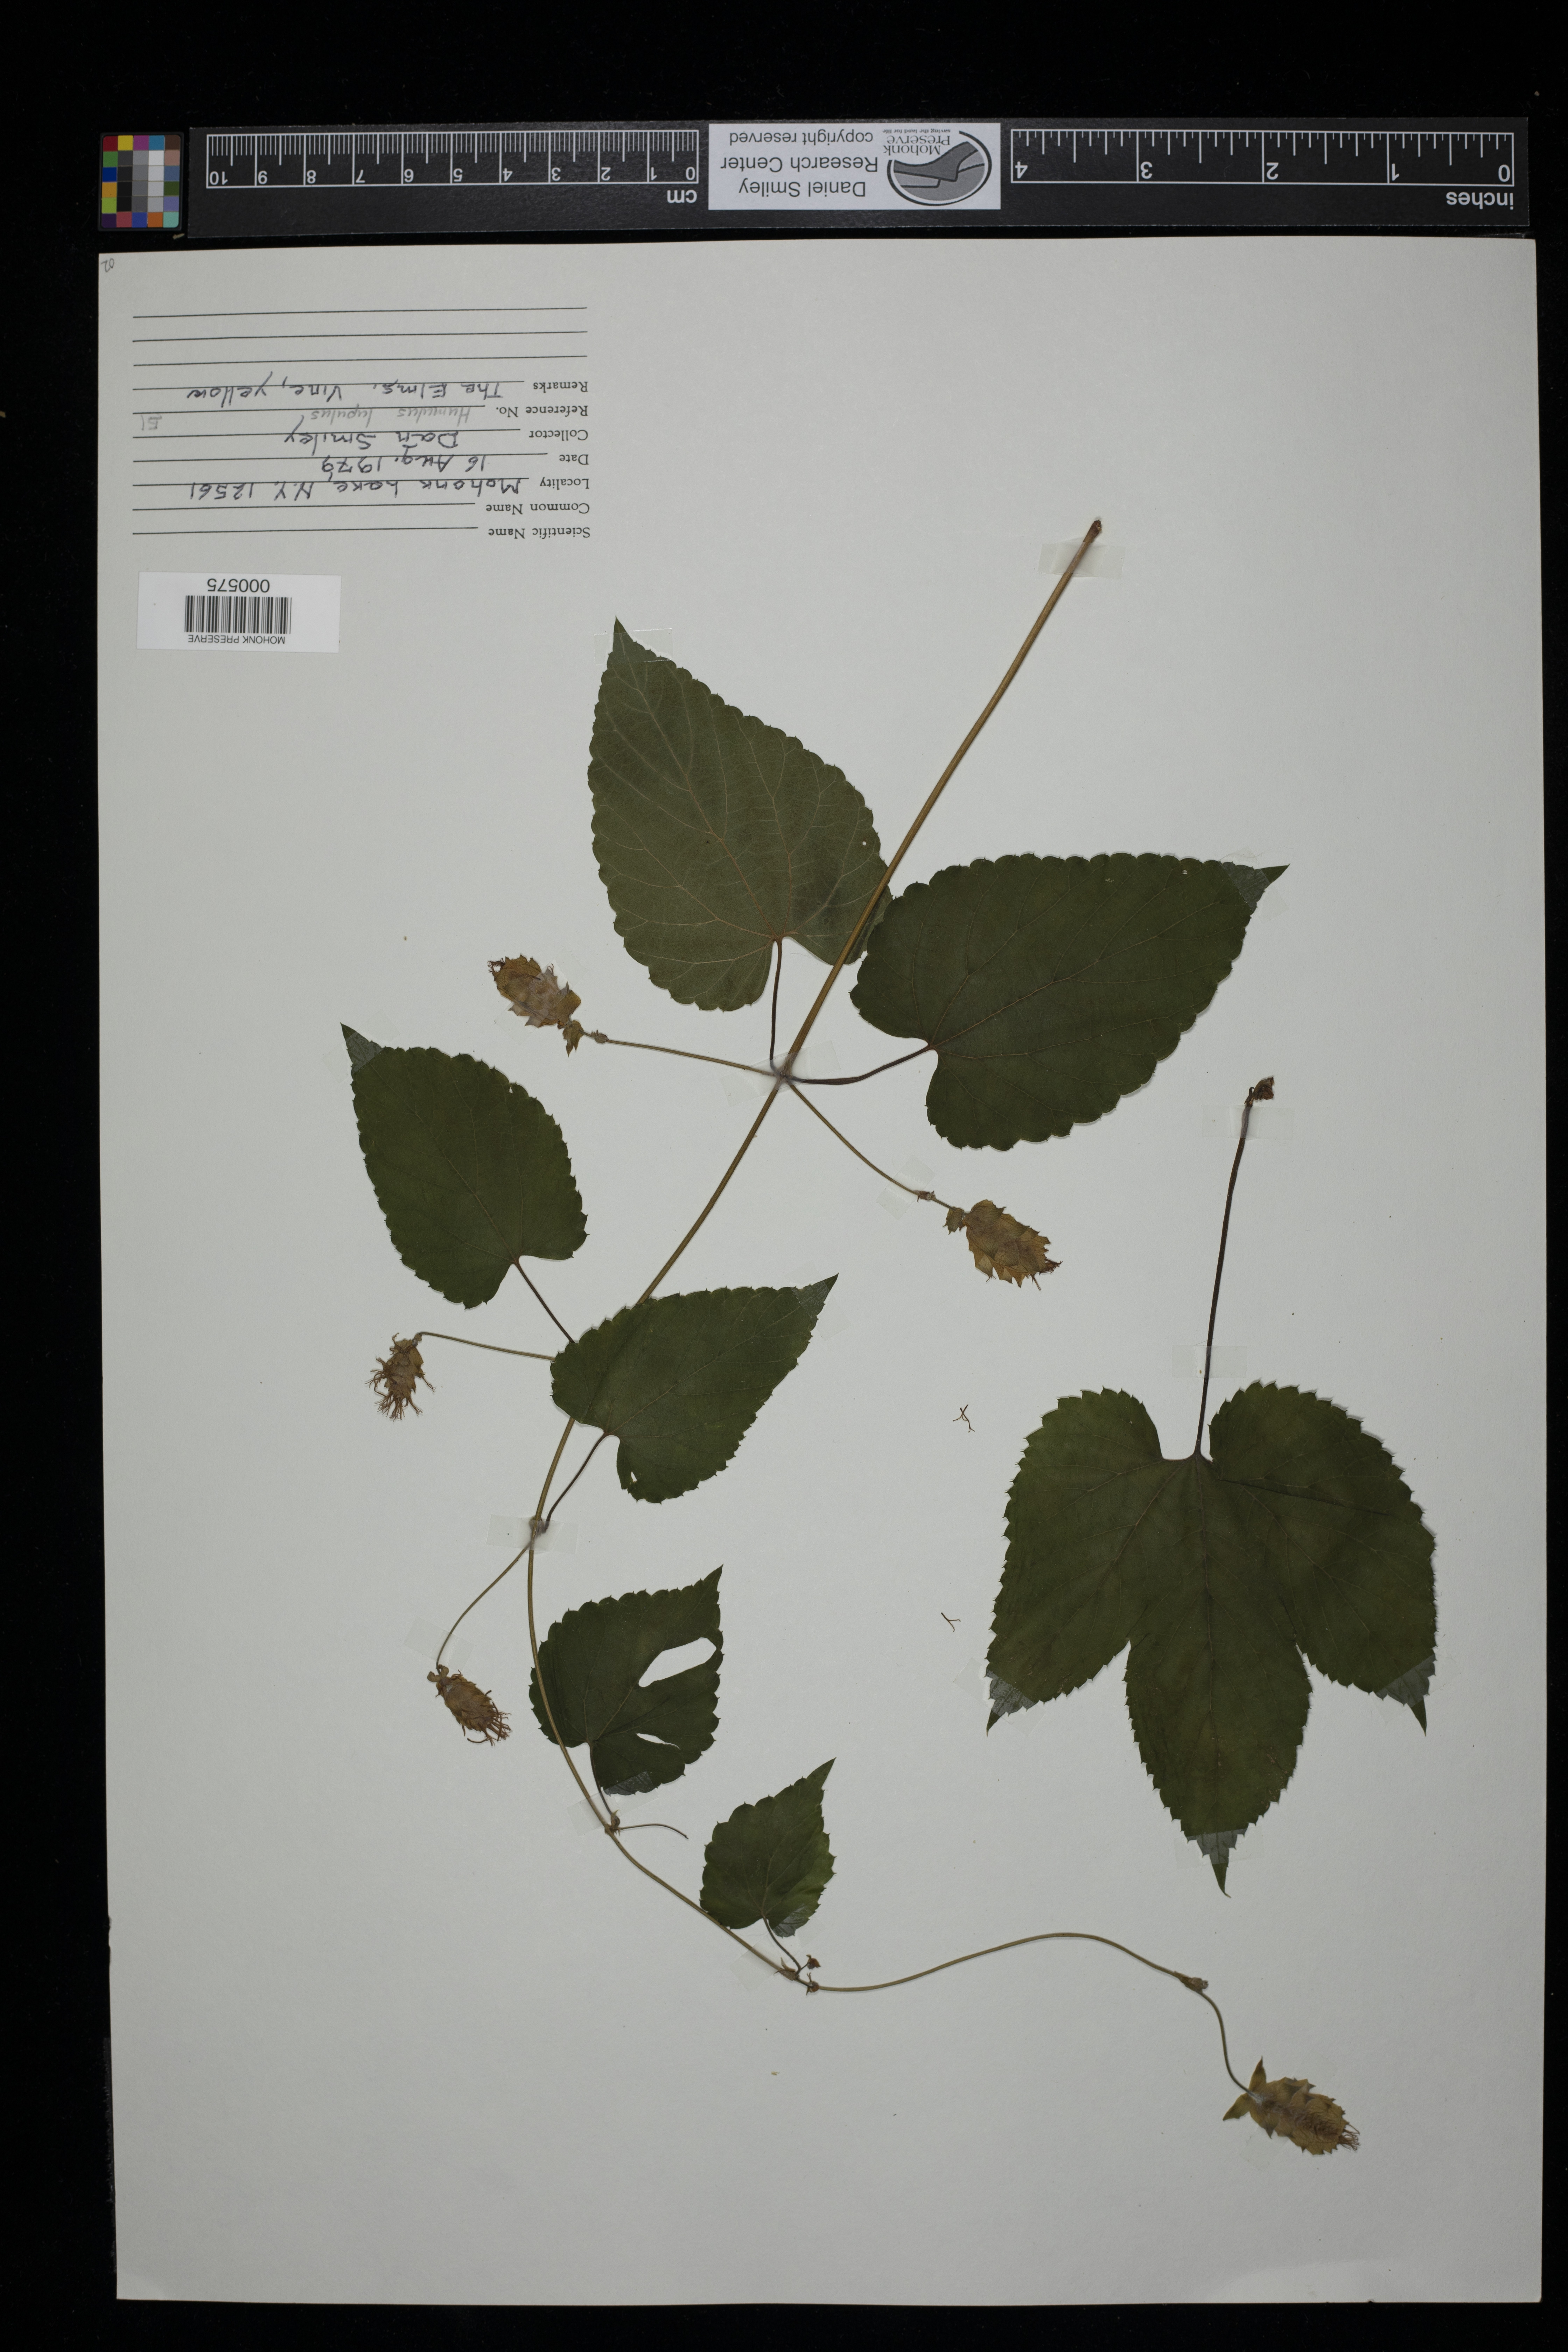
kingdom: Plantae
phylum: Tracheophyta
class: Magnoliopsida
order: Rosales
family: Cannabaceae
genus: Humulus
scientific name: Humulus lupulus
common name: Hop
